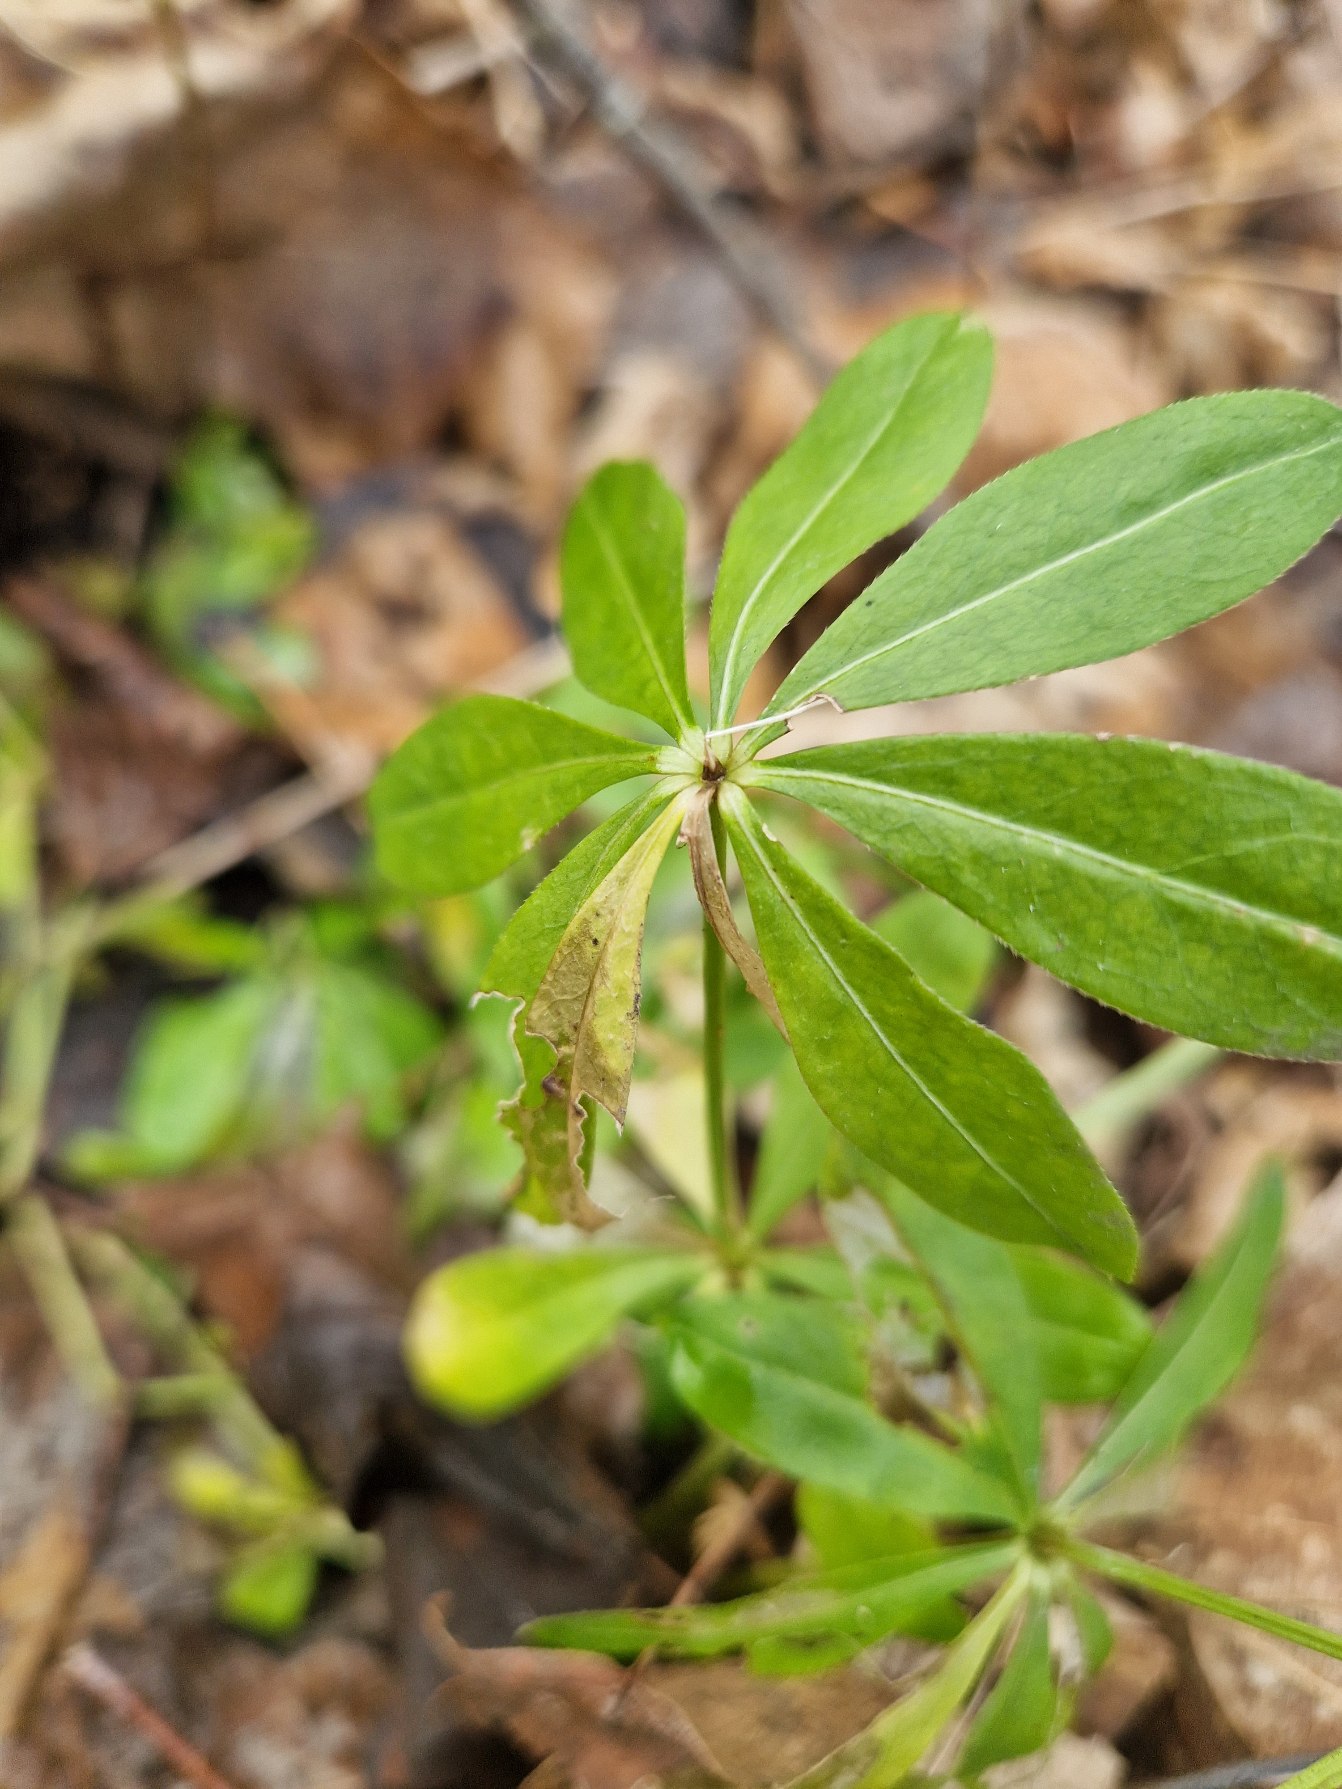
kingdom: Plantae
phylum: Tracheophyta
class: Magnoliopsida
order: Gentianales
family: Rubiaceae
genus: Galium
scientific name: Galium odoratum
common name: Skovmærke
